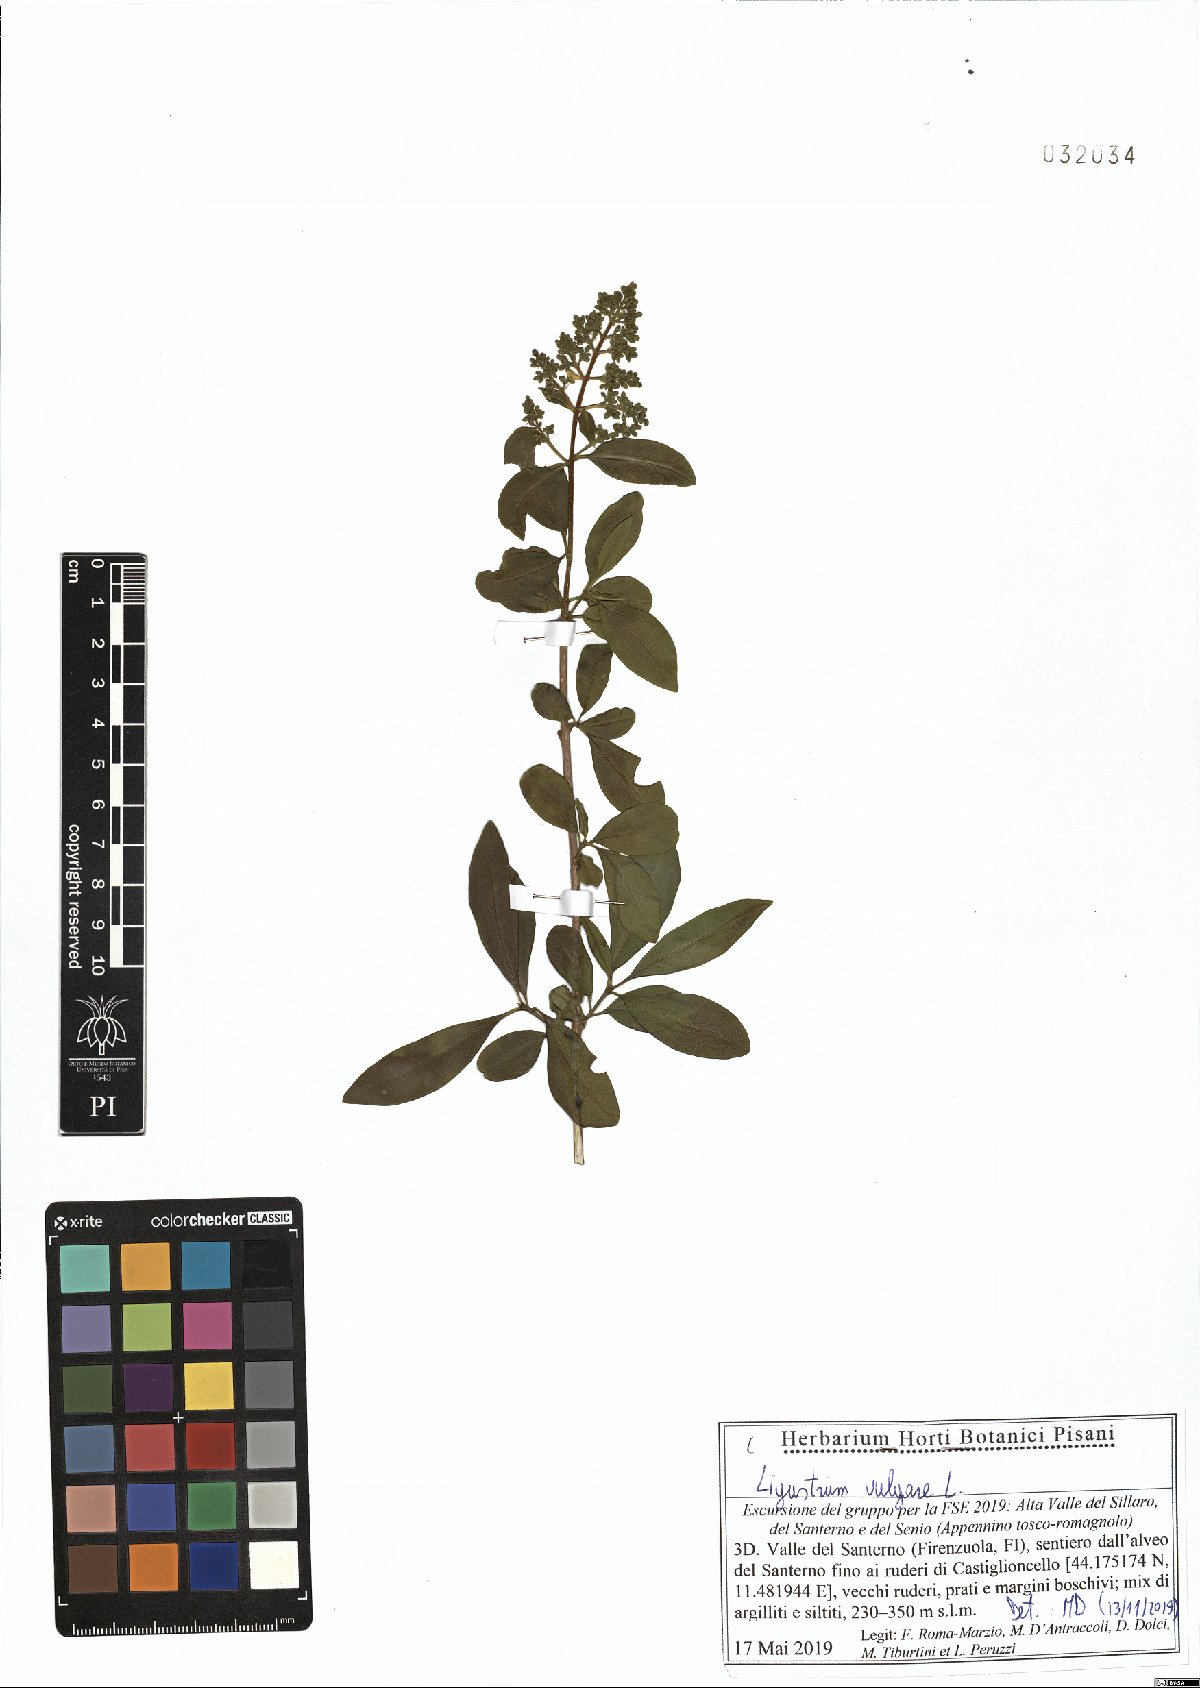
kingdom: Plantae
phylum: Tracheophyta
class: Magnoliopsida
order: Lamiales
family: Oleaceae
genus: Ligustrum
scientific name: Ligustrum vulgare
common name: Wild privet
